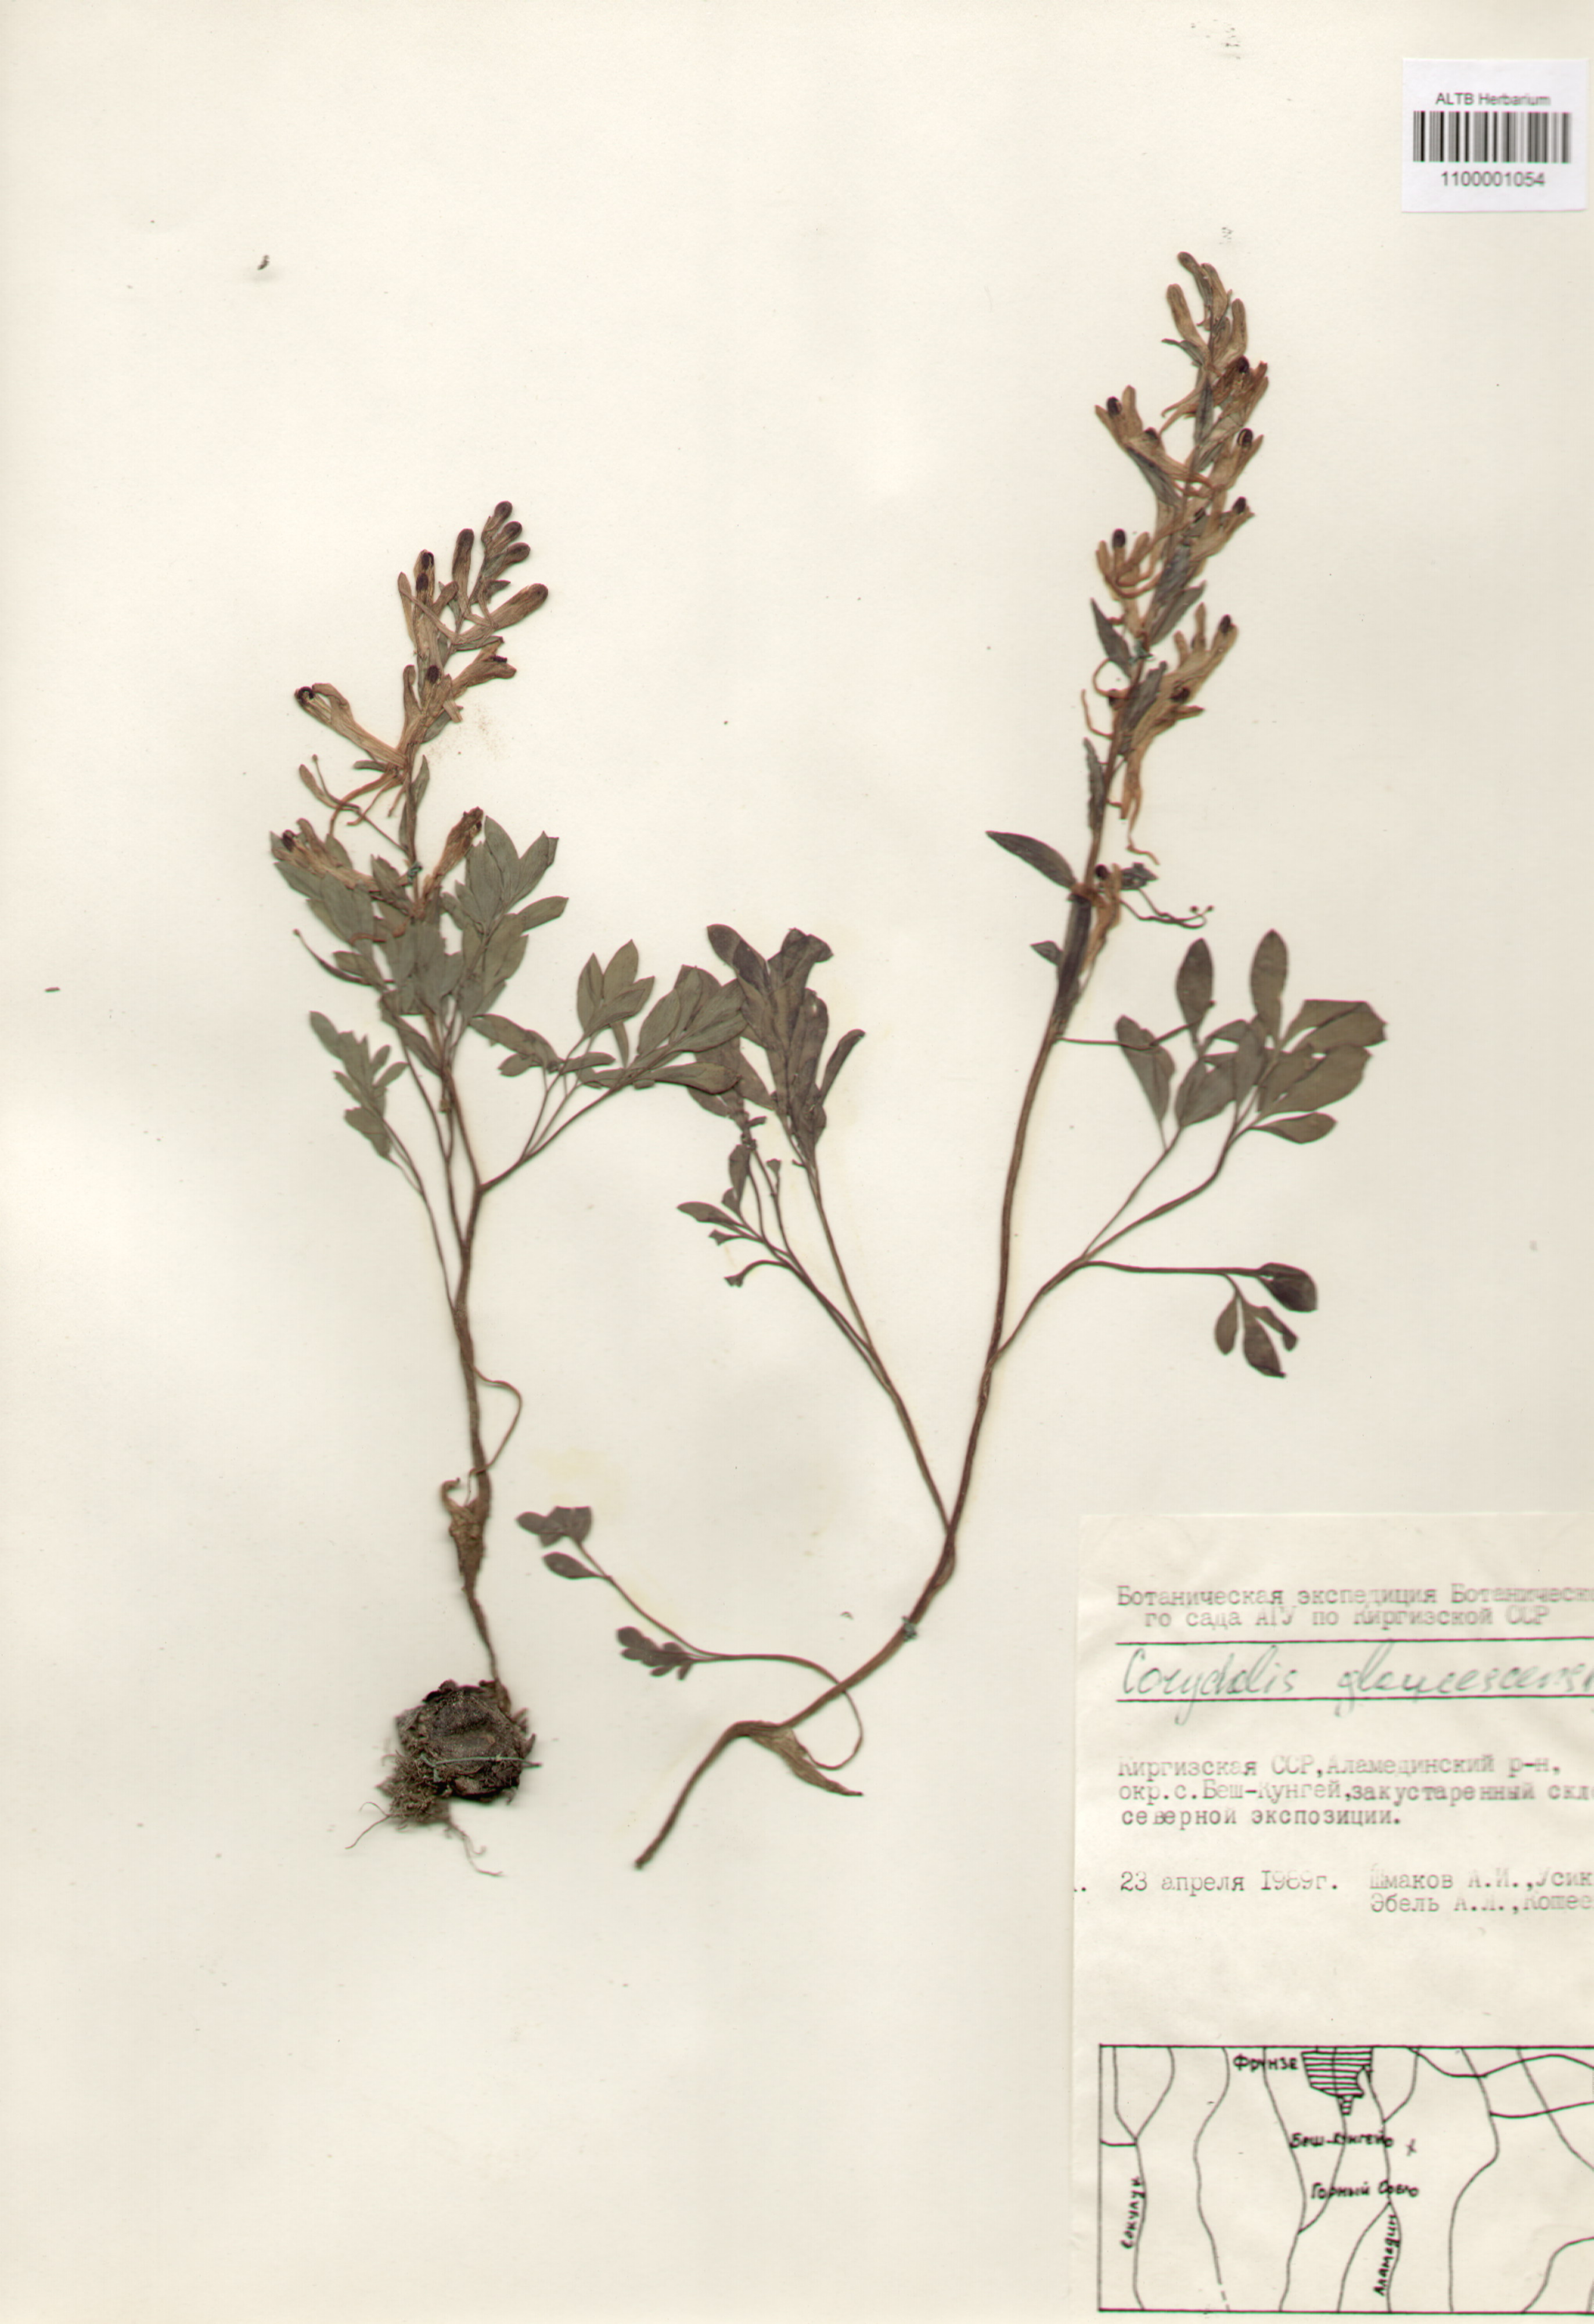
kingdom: Plantae
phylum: Tracheophyta
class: Magnoliopsida
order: Ranunculales
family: Papaveraceae
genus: Corydalis
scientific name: Corydalis glaucescens
